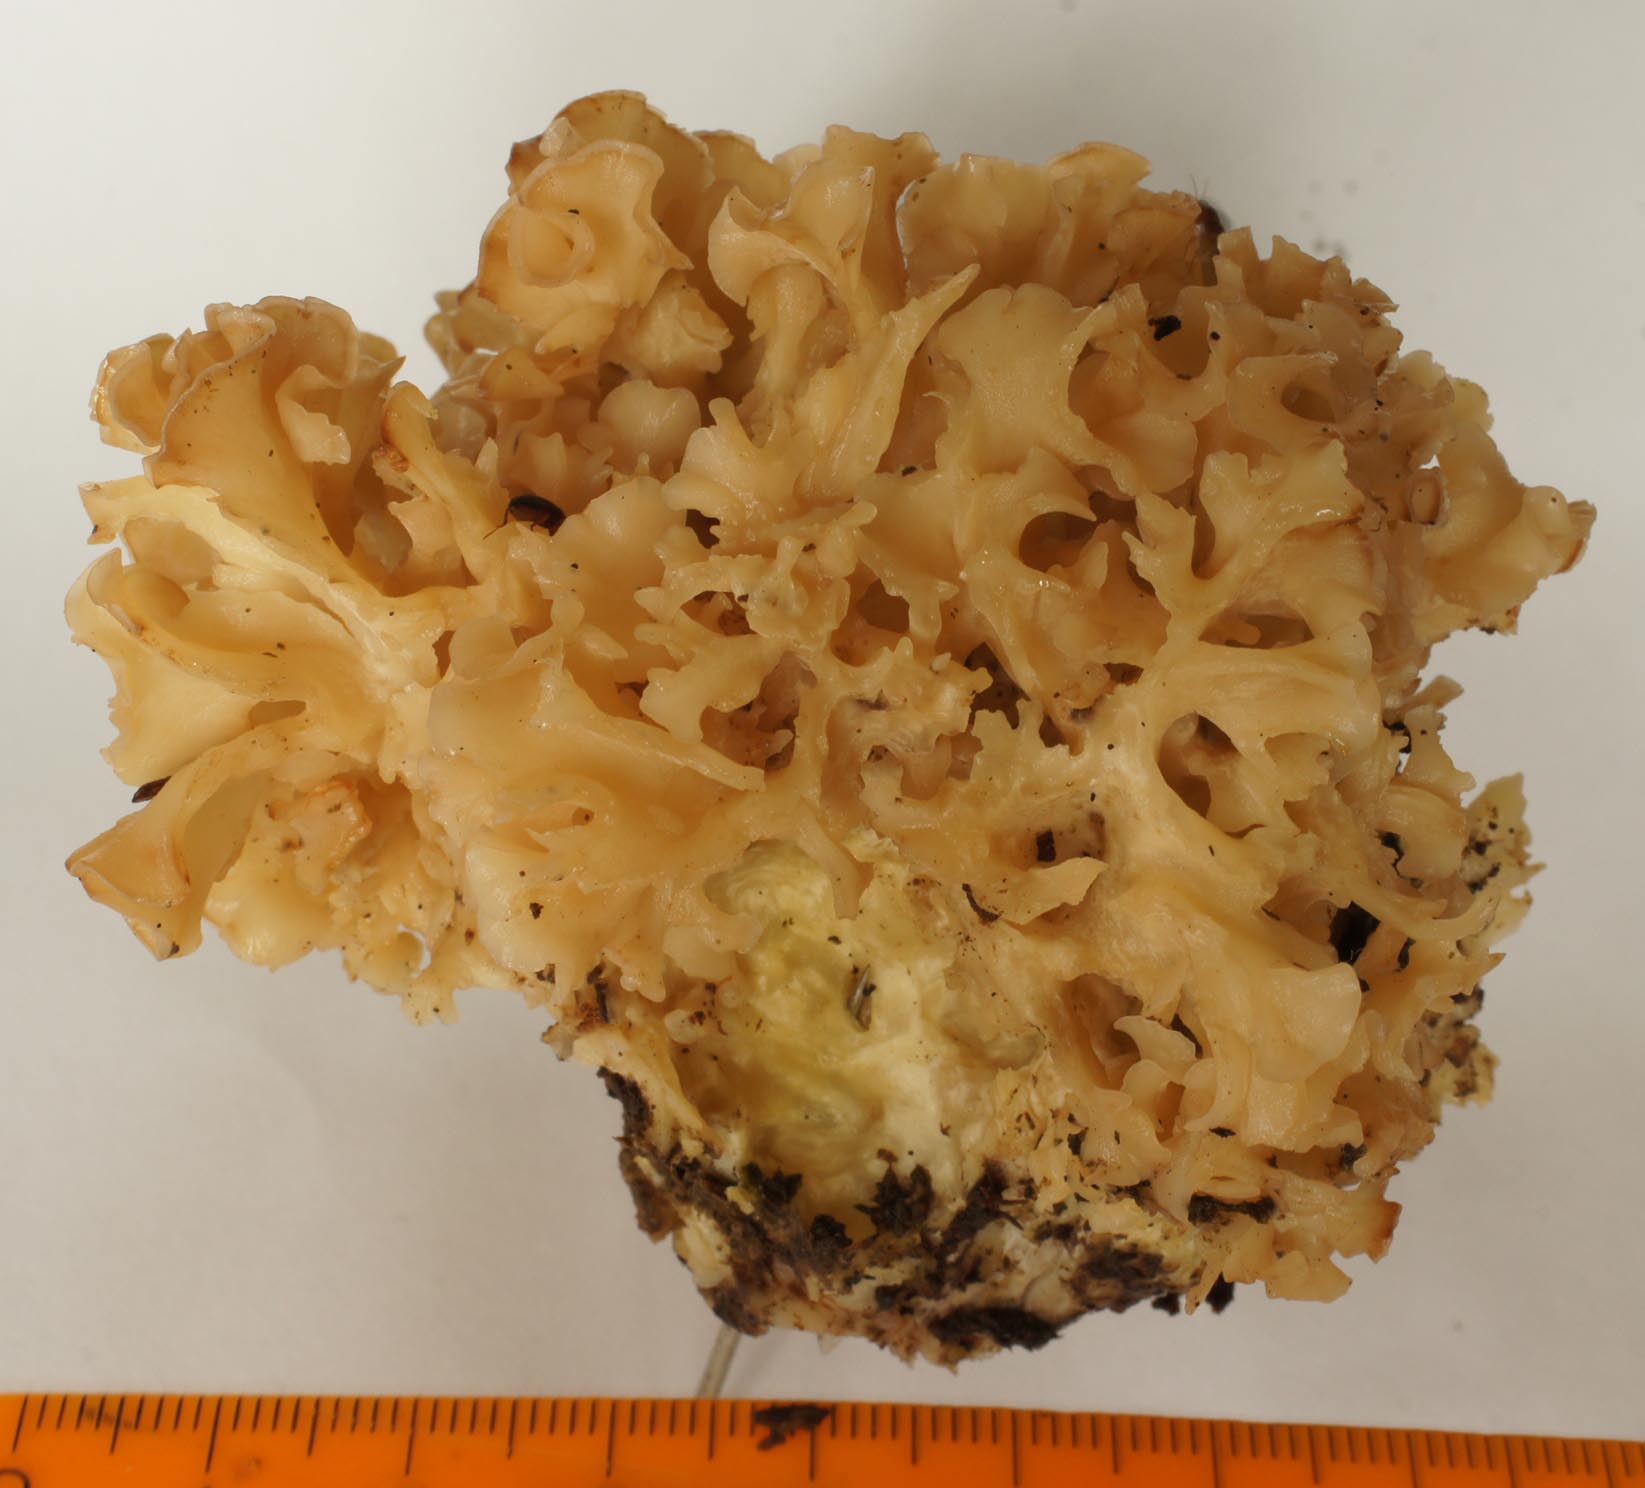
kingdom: Fungi
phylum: Basidiomycota
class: Agaricomycetes
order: Polyporales
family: Sparassidaceae
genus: Sparassis
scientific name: Sparassis crispa
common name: kruset blomkålssvamp
